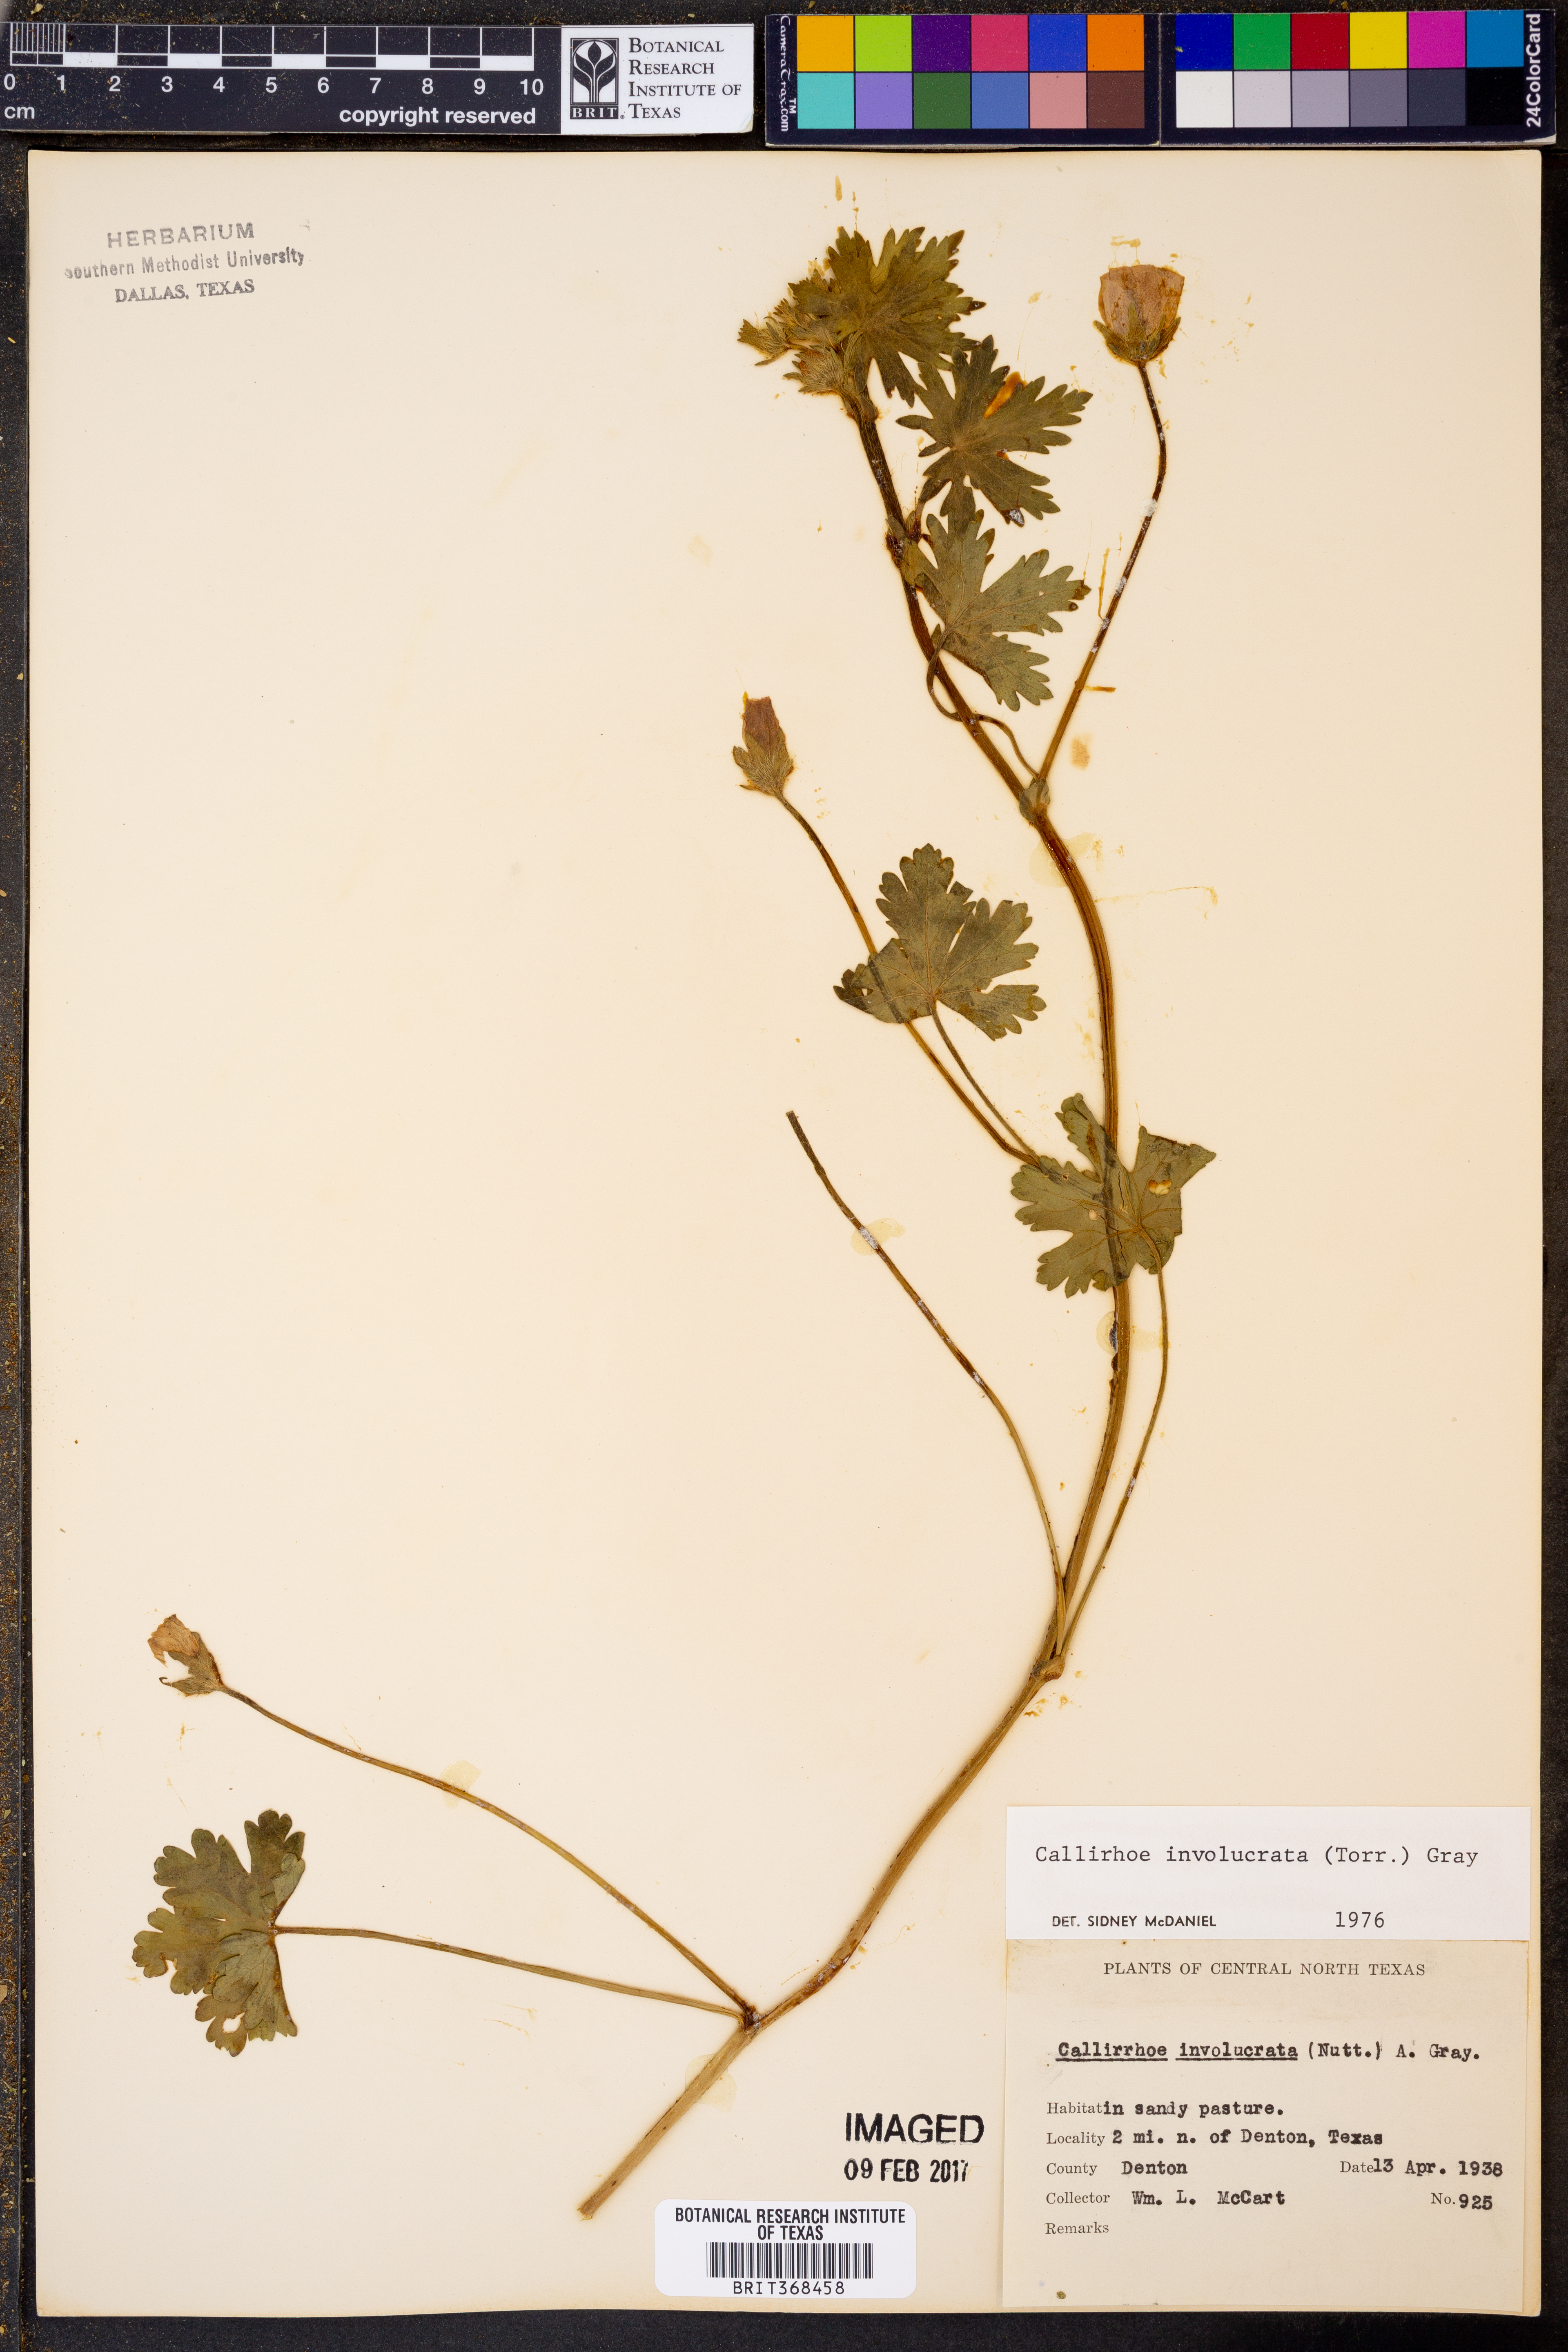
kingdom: Plantae
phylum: Tracheophyta
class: Magnoliopsida
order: Malvales
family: Malvaceae
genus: Callirhoe
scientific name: Callirhoe involucrata
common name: Purple poppy-mallow
